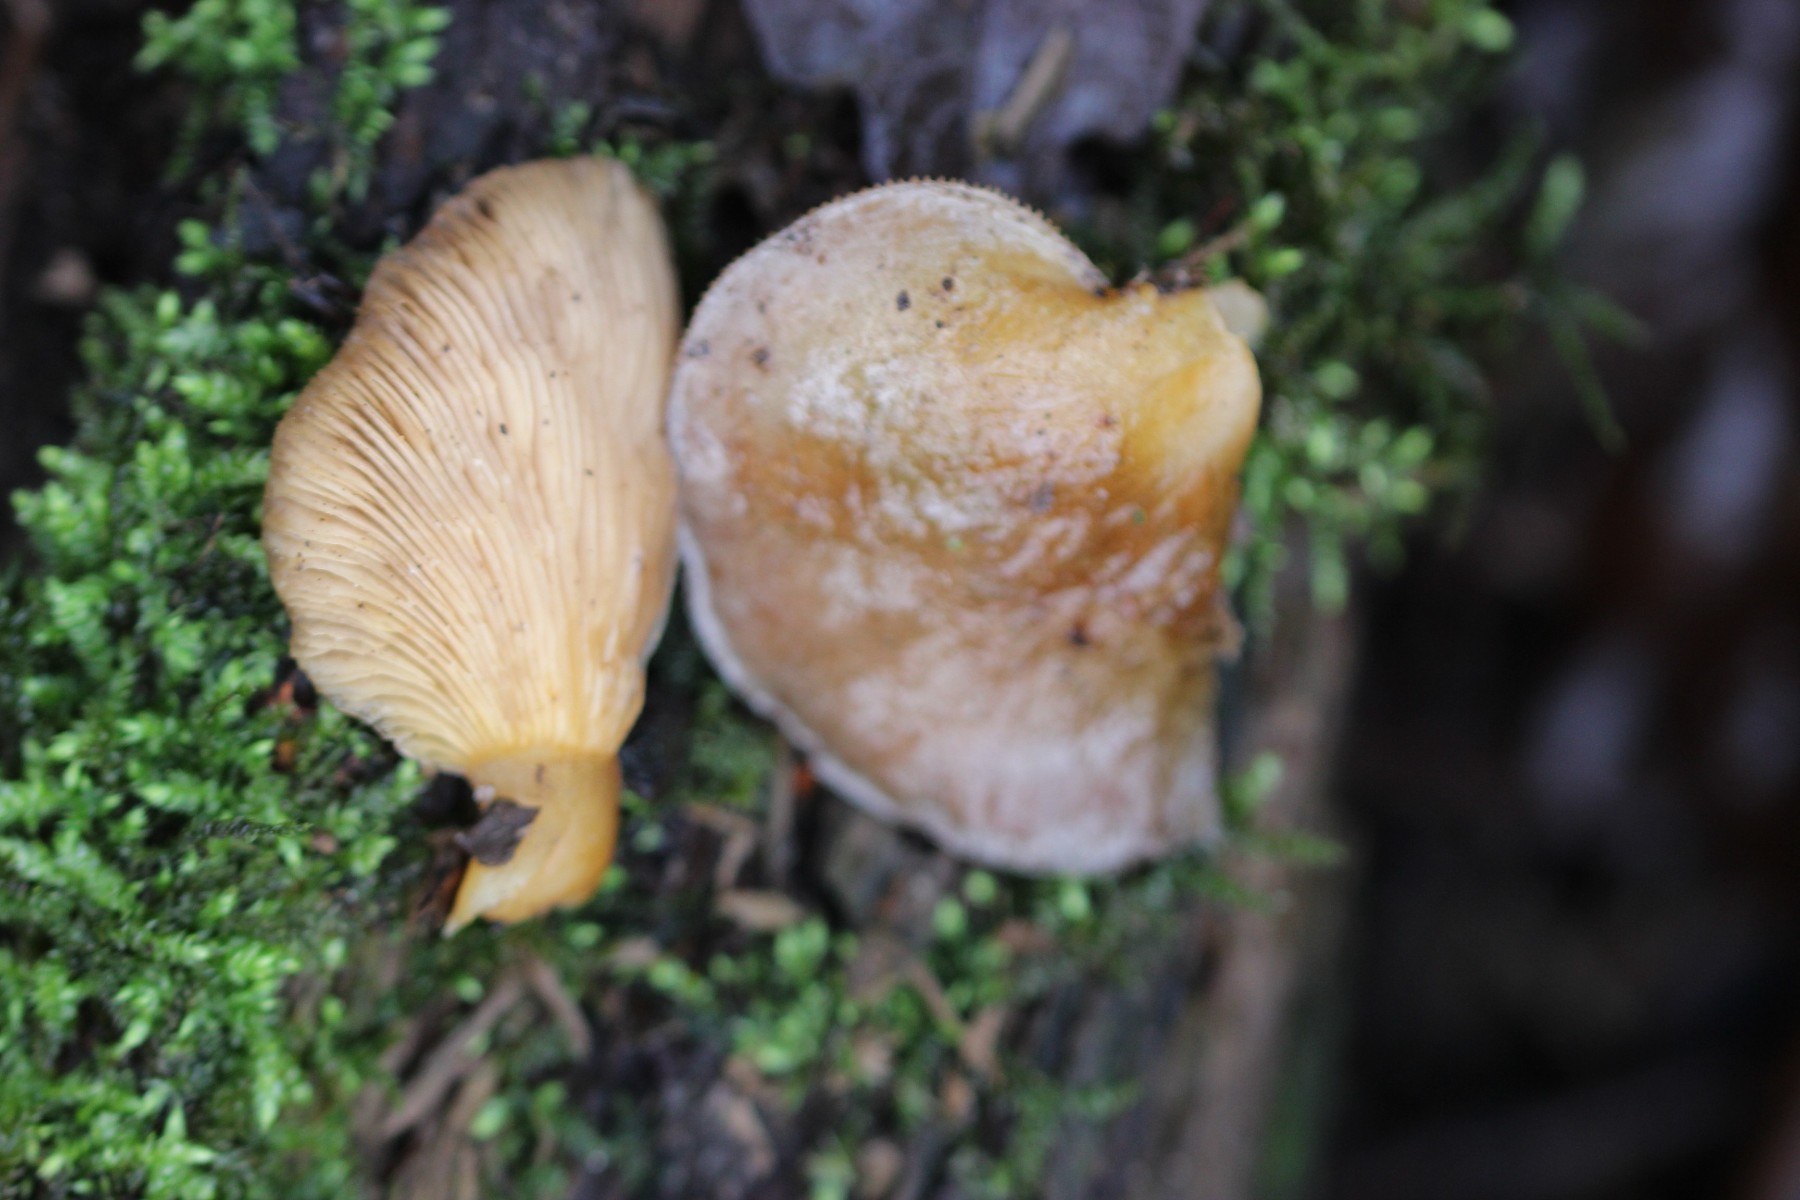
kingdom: Fungi
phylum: Basidiomycota
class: Agaricomycetes
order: Agaricales
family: Sarcomyxaceae
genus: Sarcomyxa
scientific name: Sarcomyxa serotina
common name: gummihat
